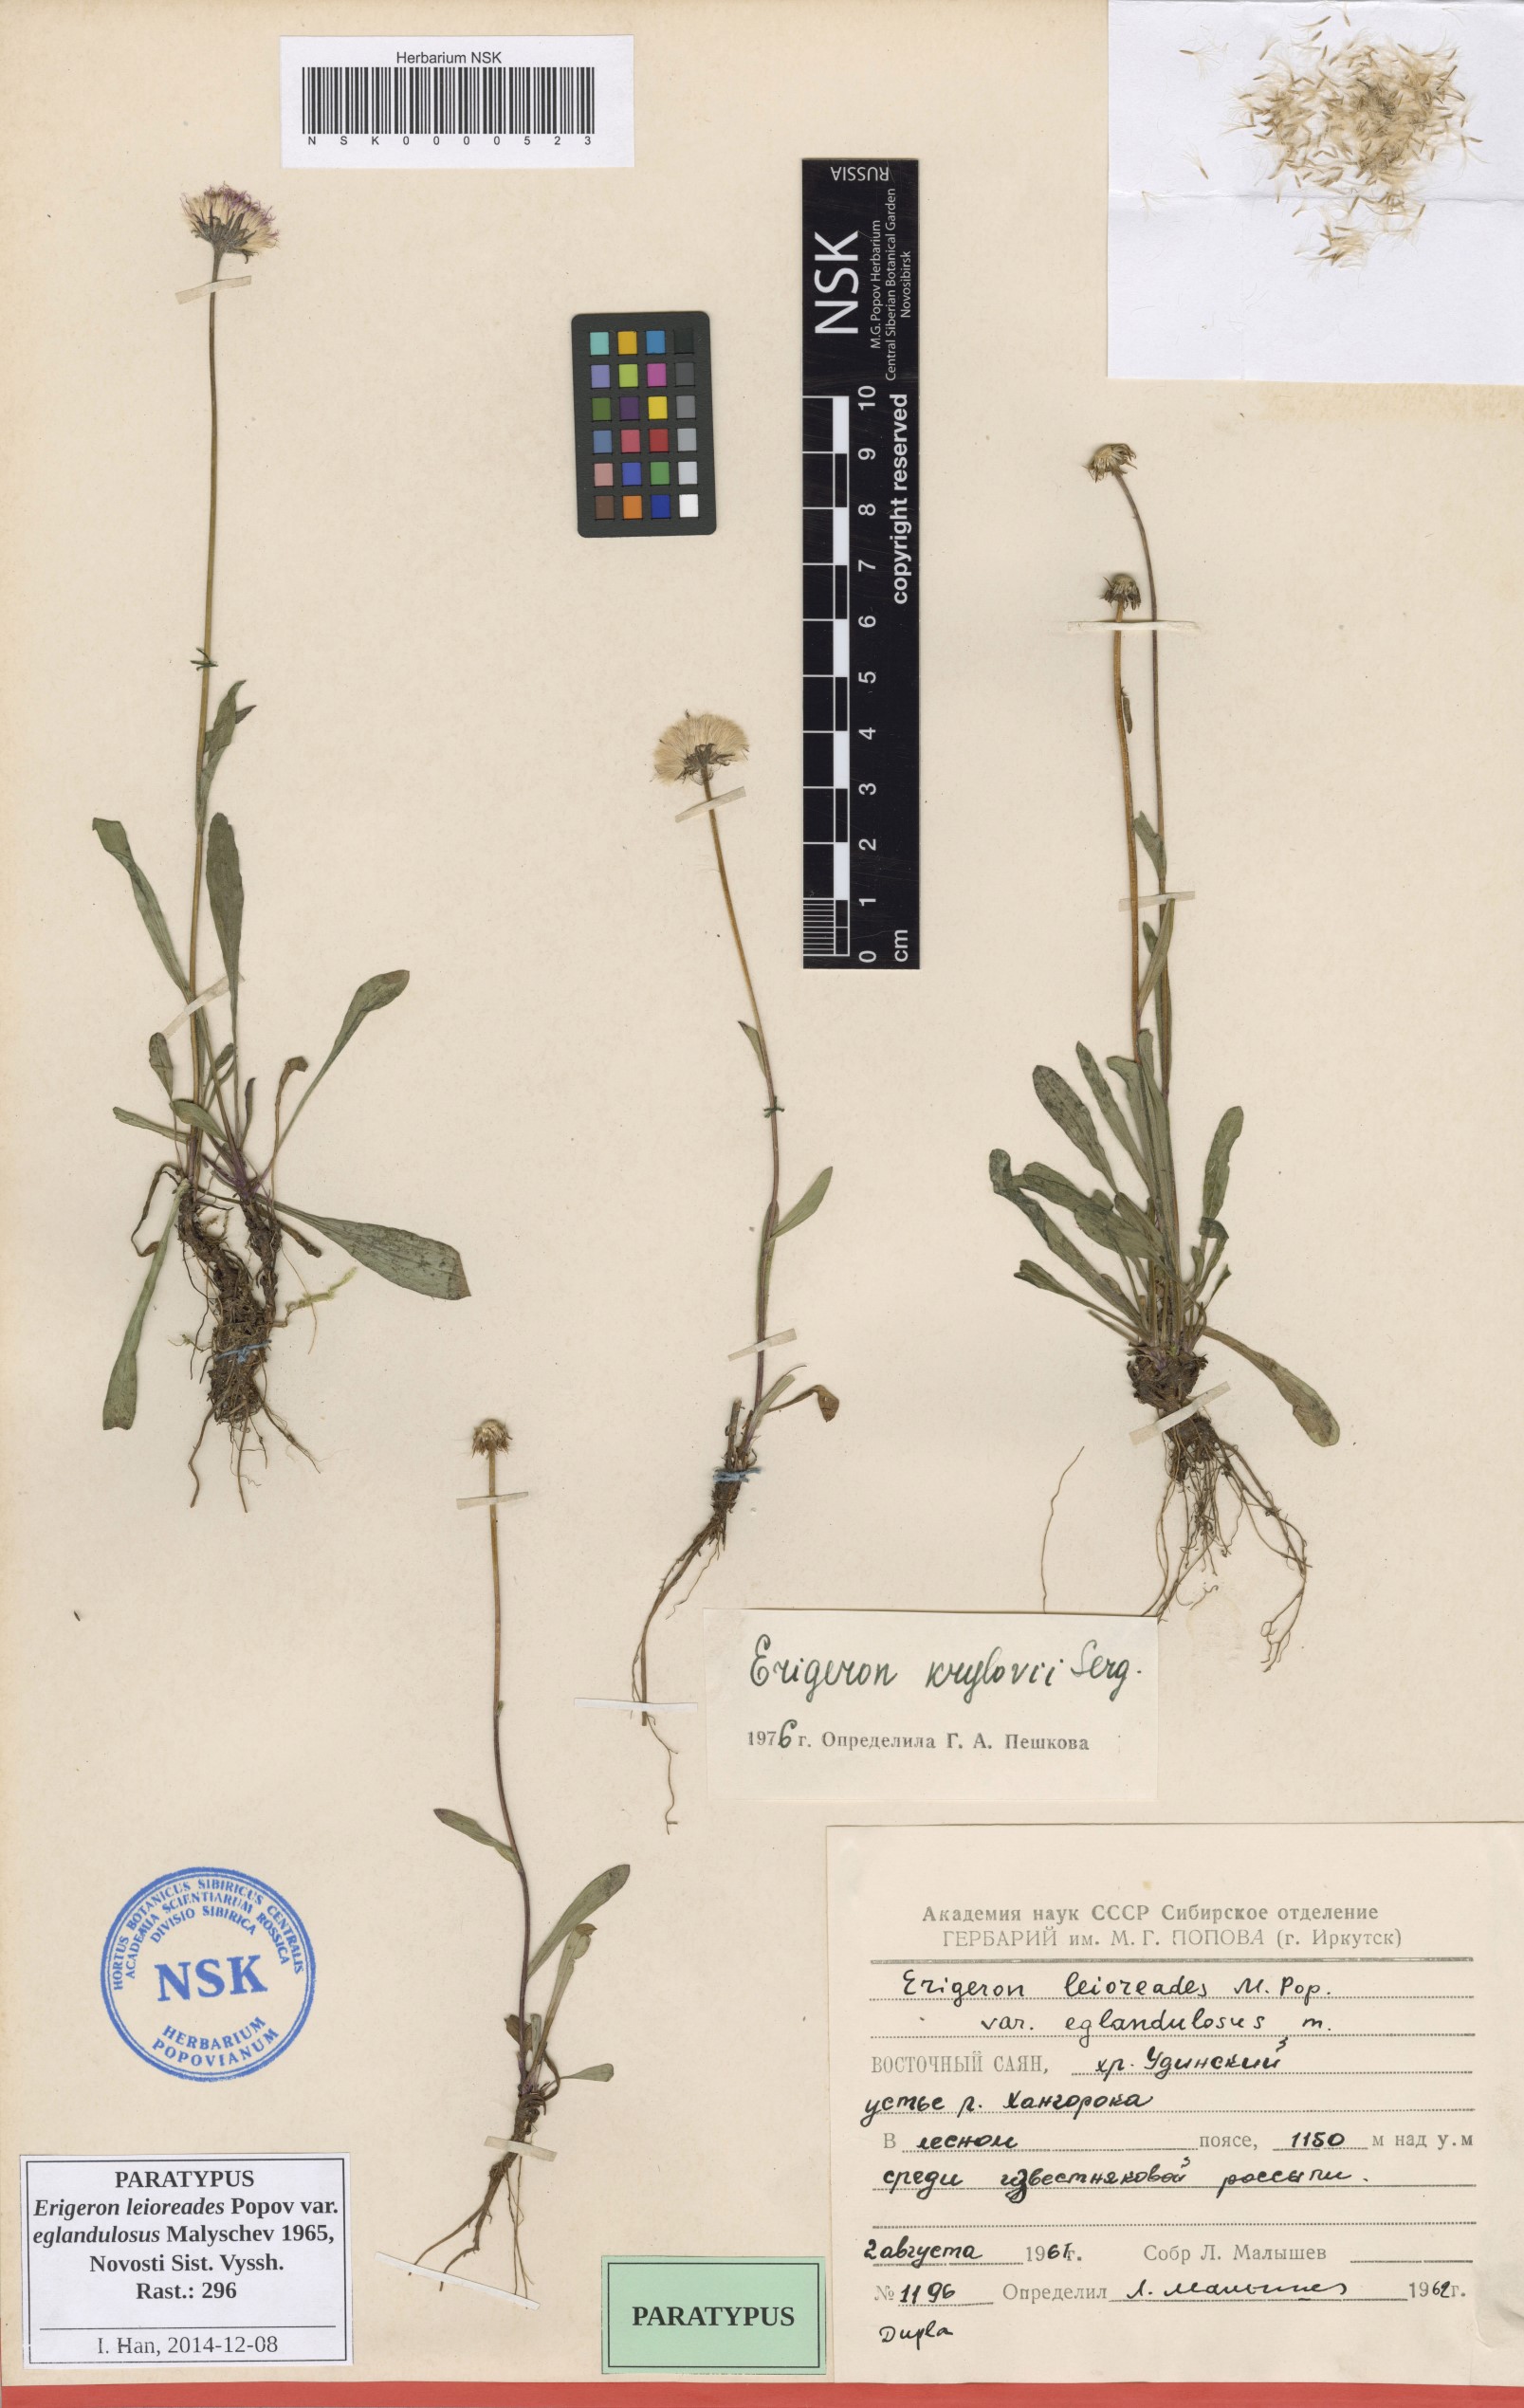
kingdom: Plantae
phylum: Tracheophyta
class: Magnoliopsida
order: Asterales
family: Asteraceae
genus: Erigeron
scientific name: Erigeron leioreades
